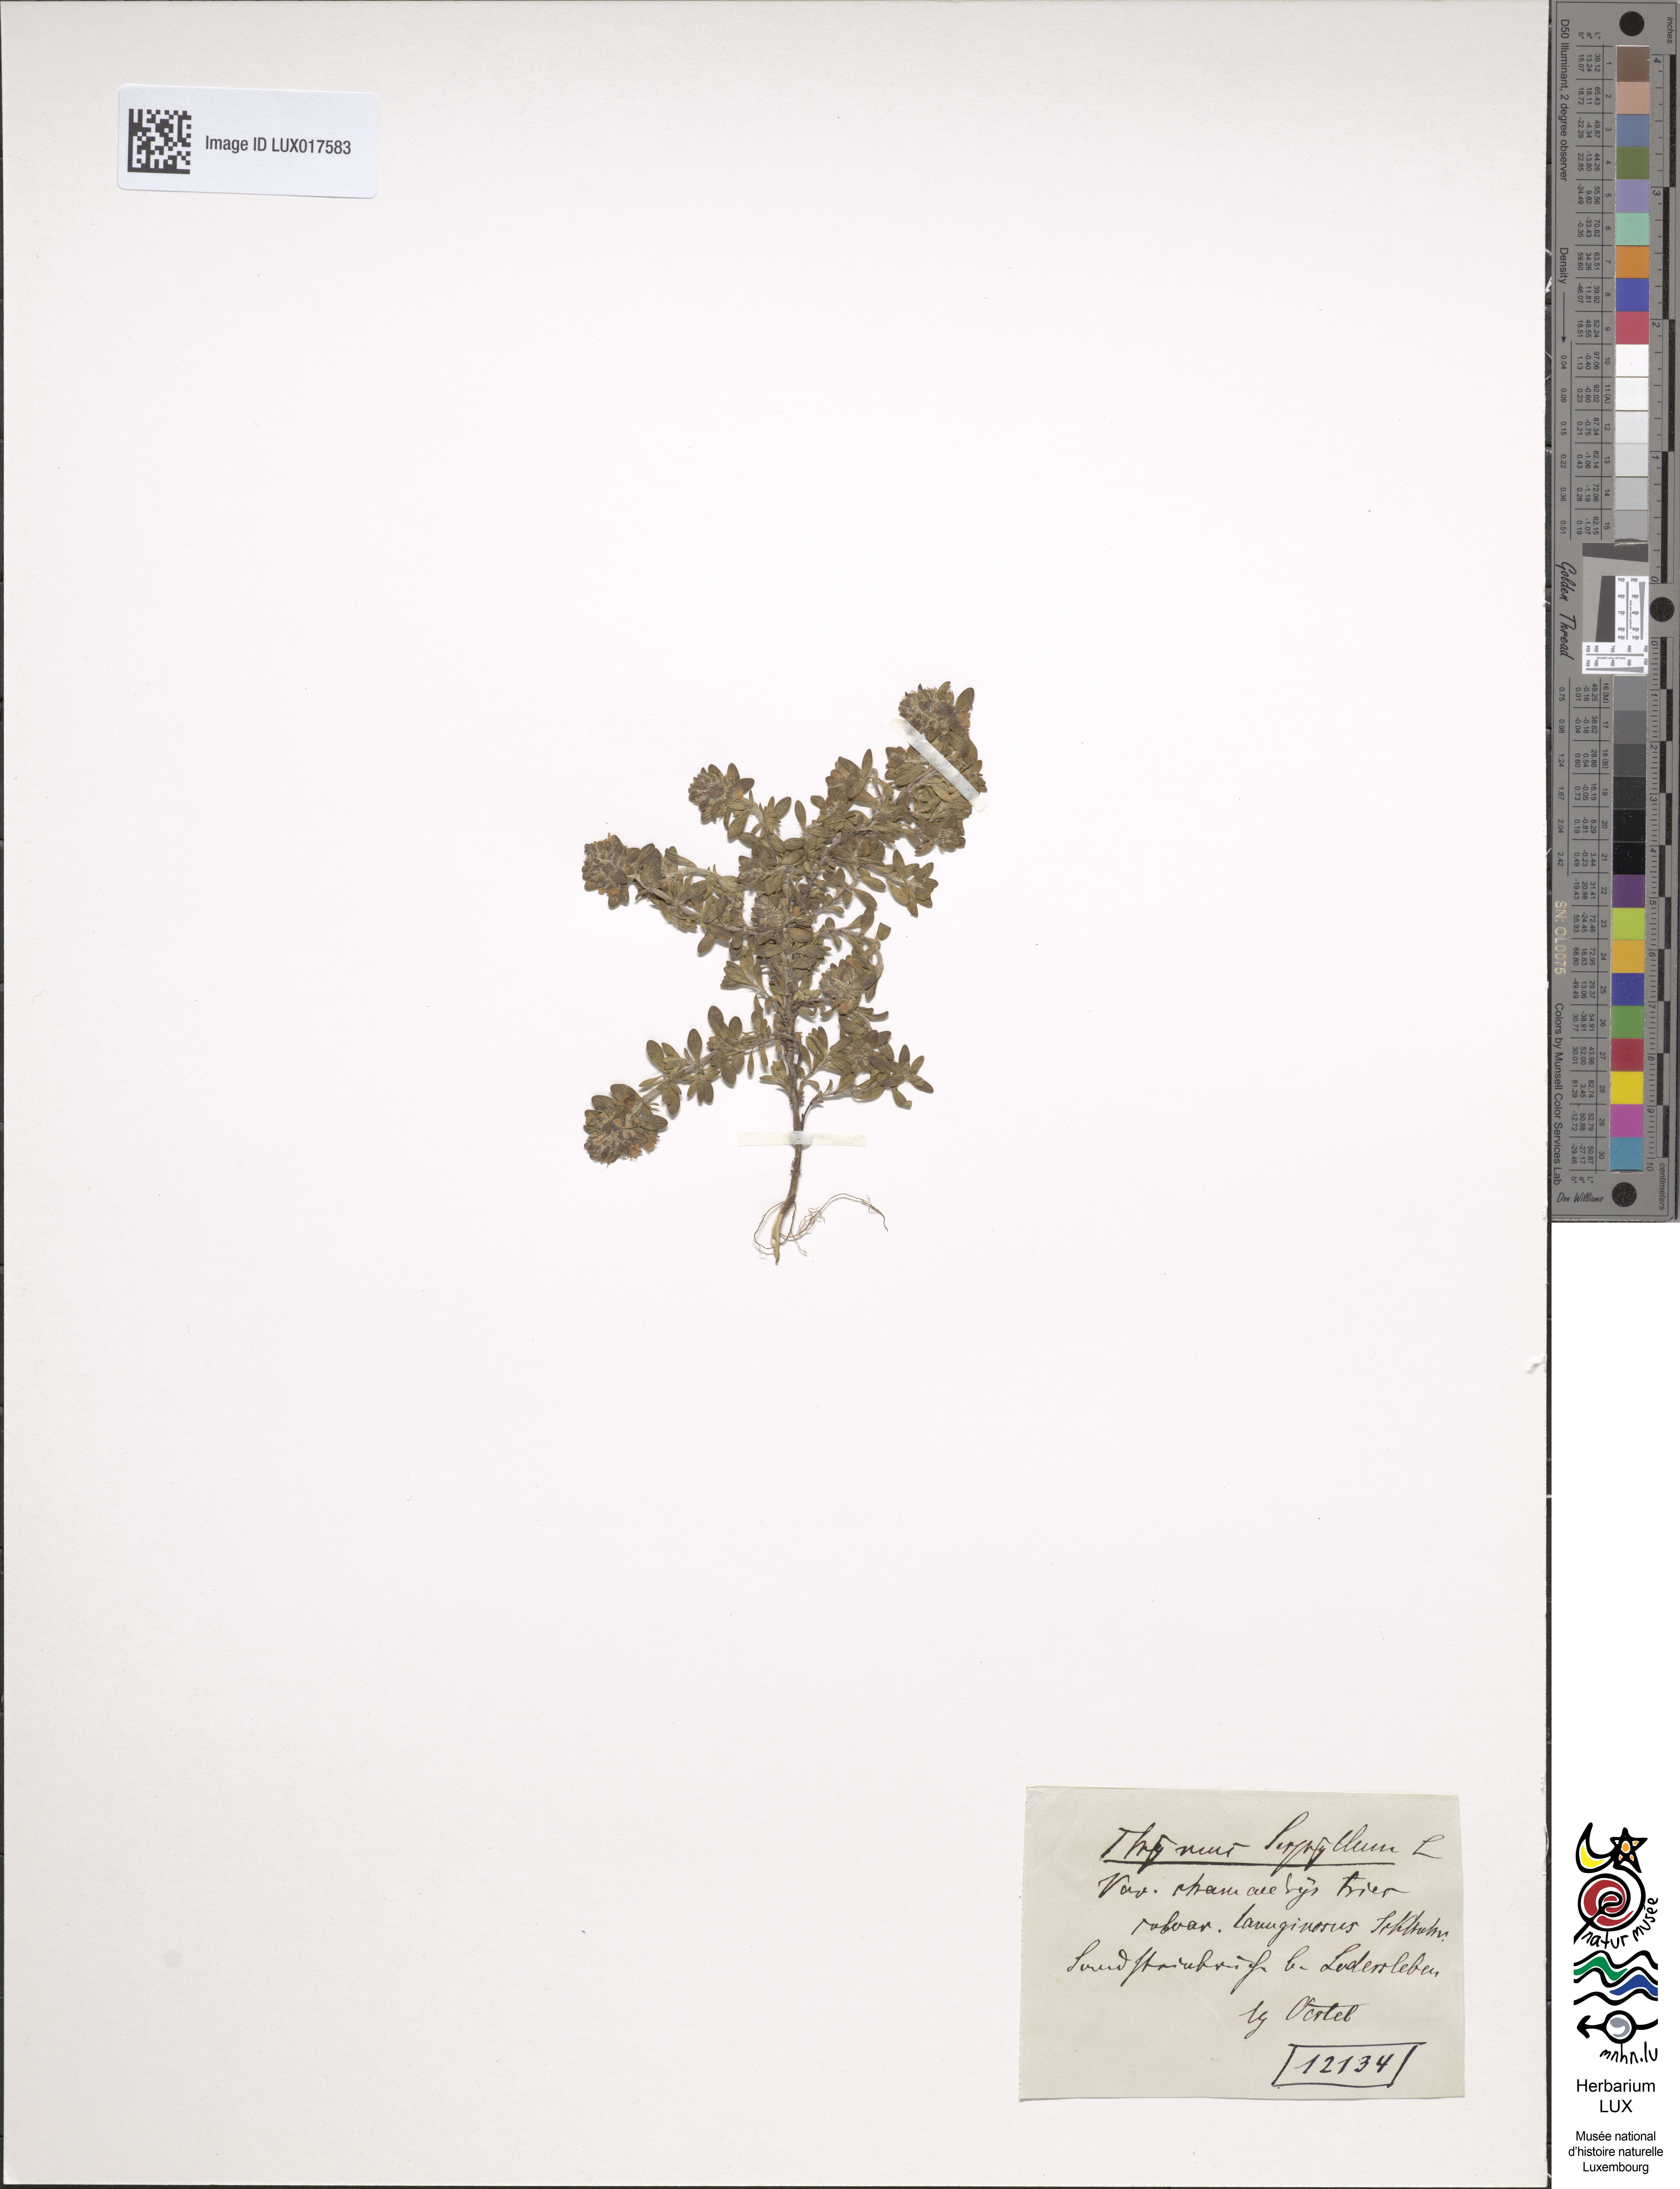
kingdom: Plantae
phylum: Tracheophyta
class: Magnoliopsida
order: Lamiales
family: Lamiaceae
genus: Thymus
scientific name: Thymus pulegioides
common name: Large thyme
